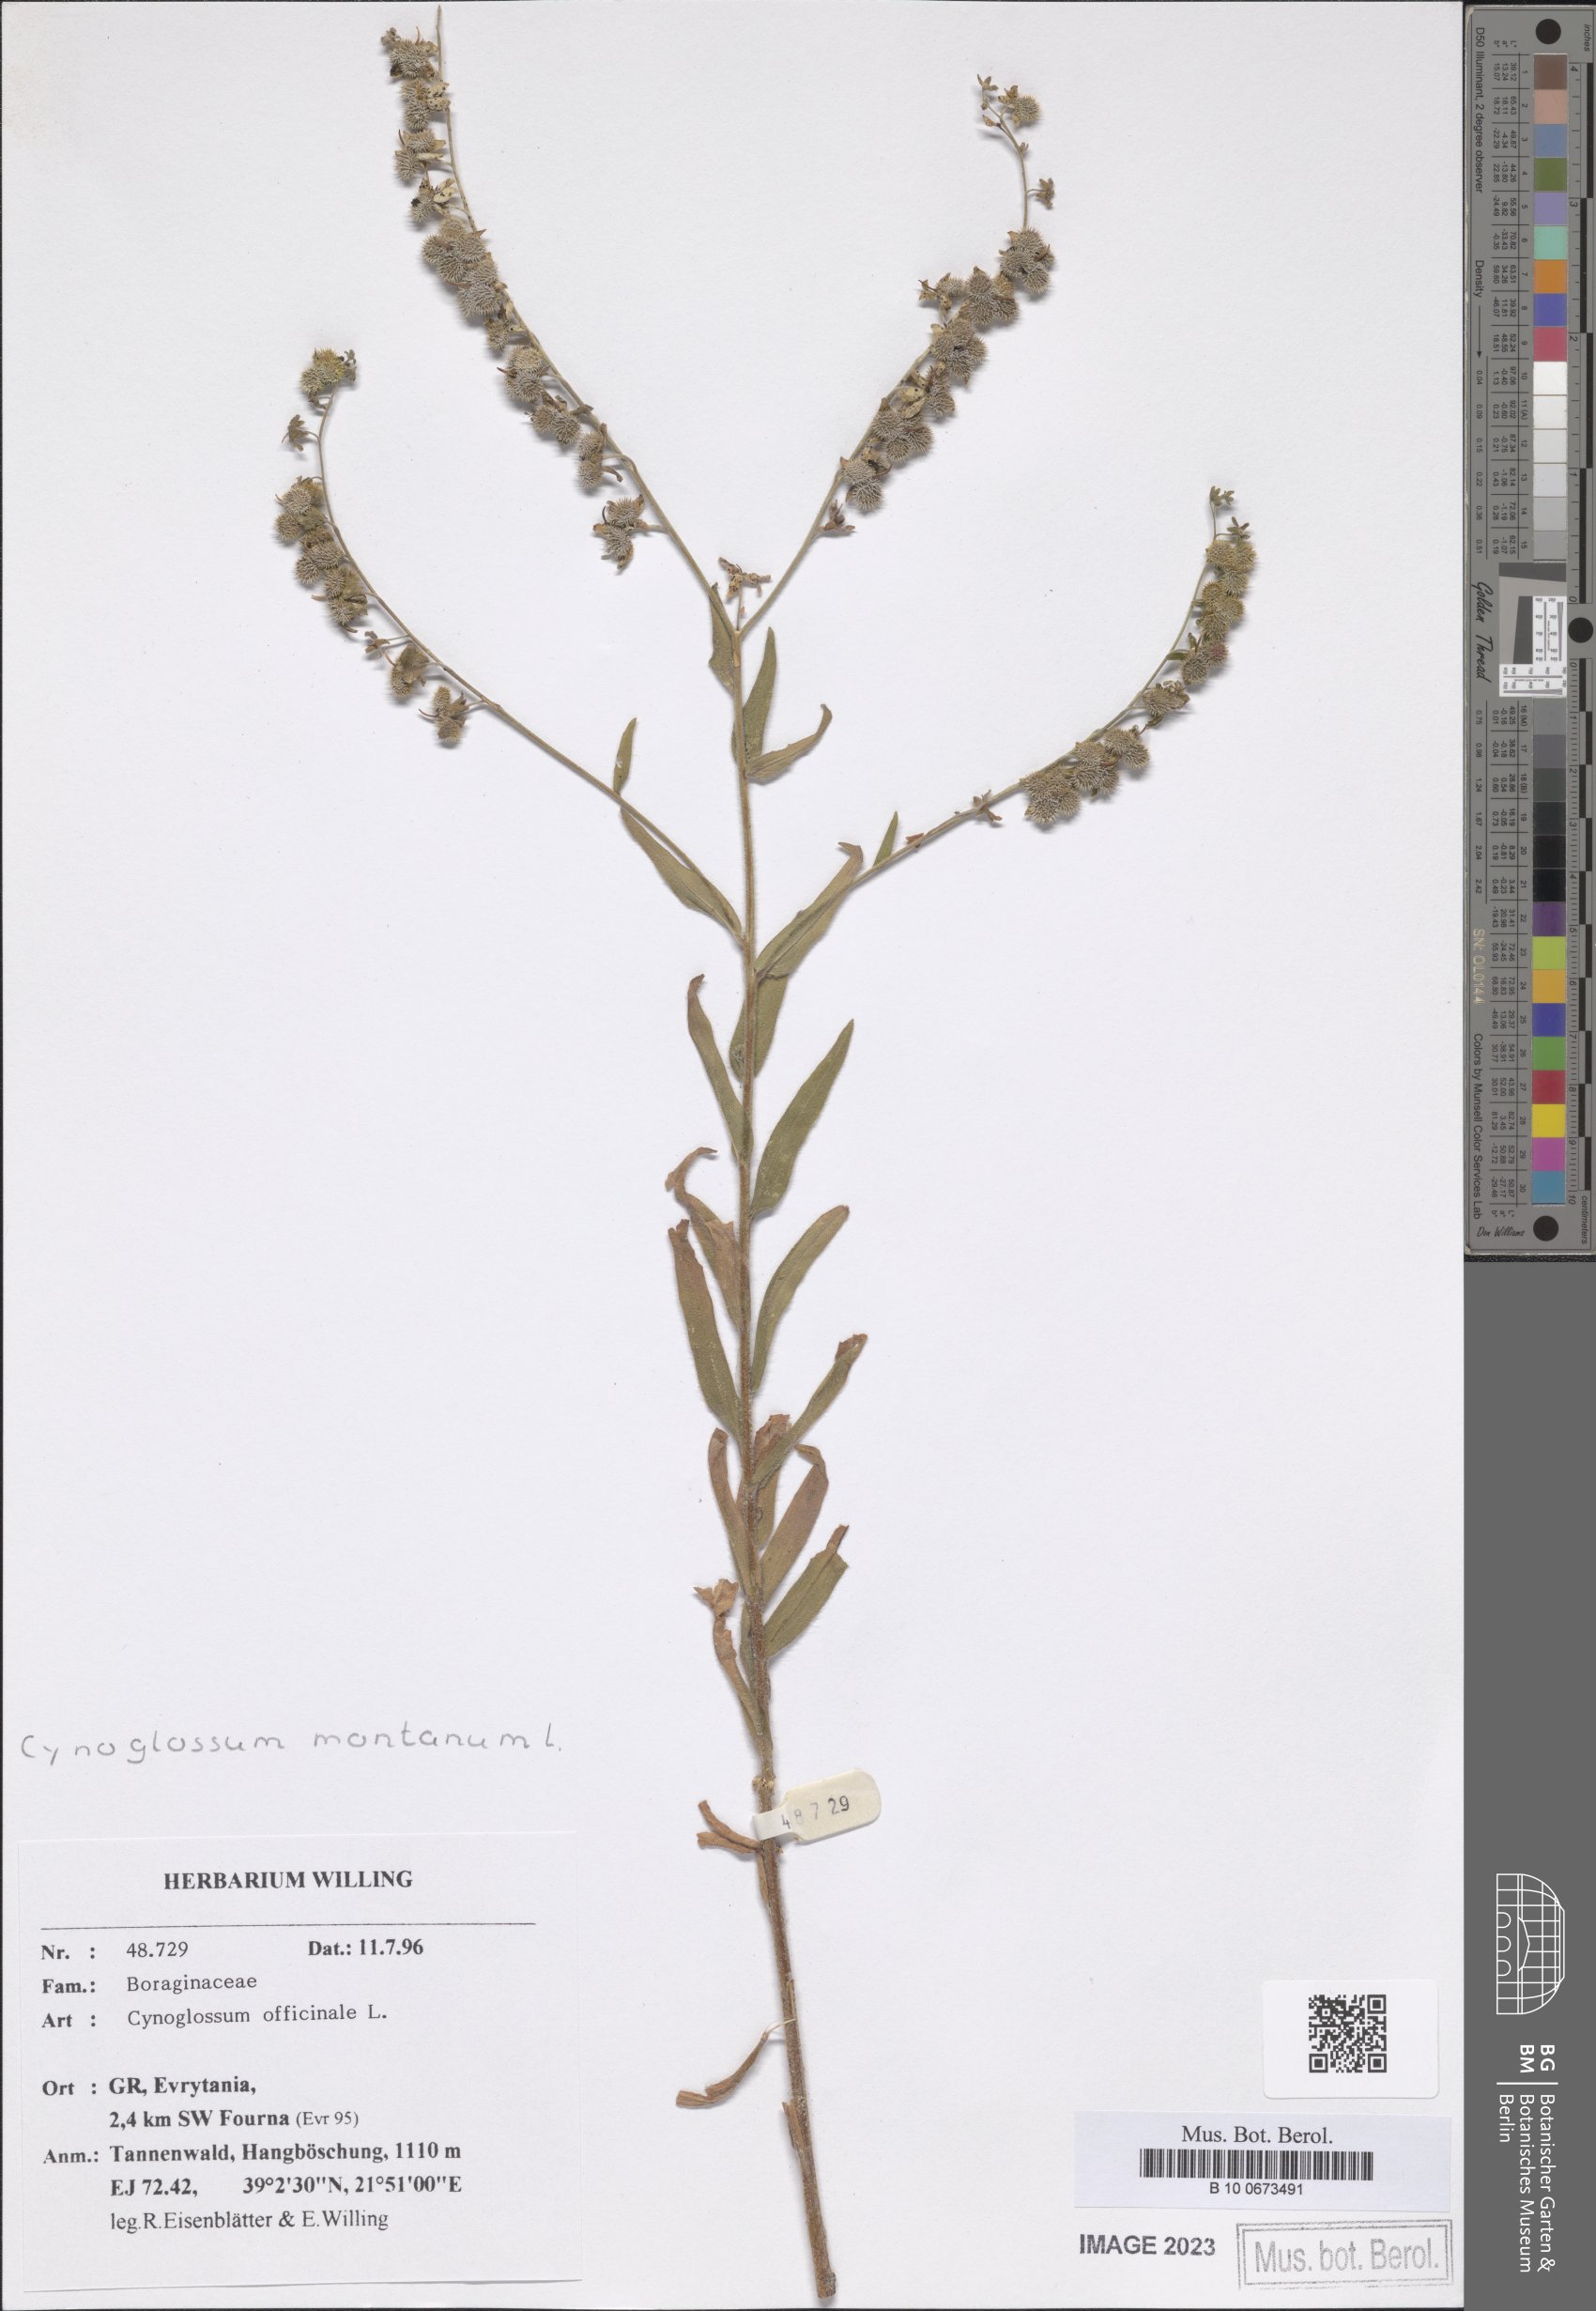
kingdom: Plantae
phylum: Tracheophyta
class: Magnoliopsida
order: Boraginales
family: Boraginaceae
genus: Cynoglossum
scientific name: Cynoglossum montanum
